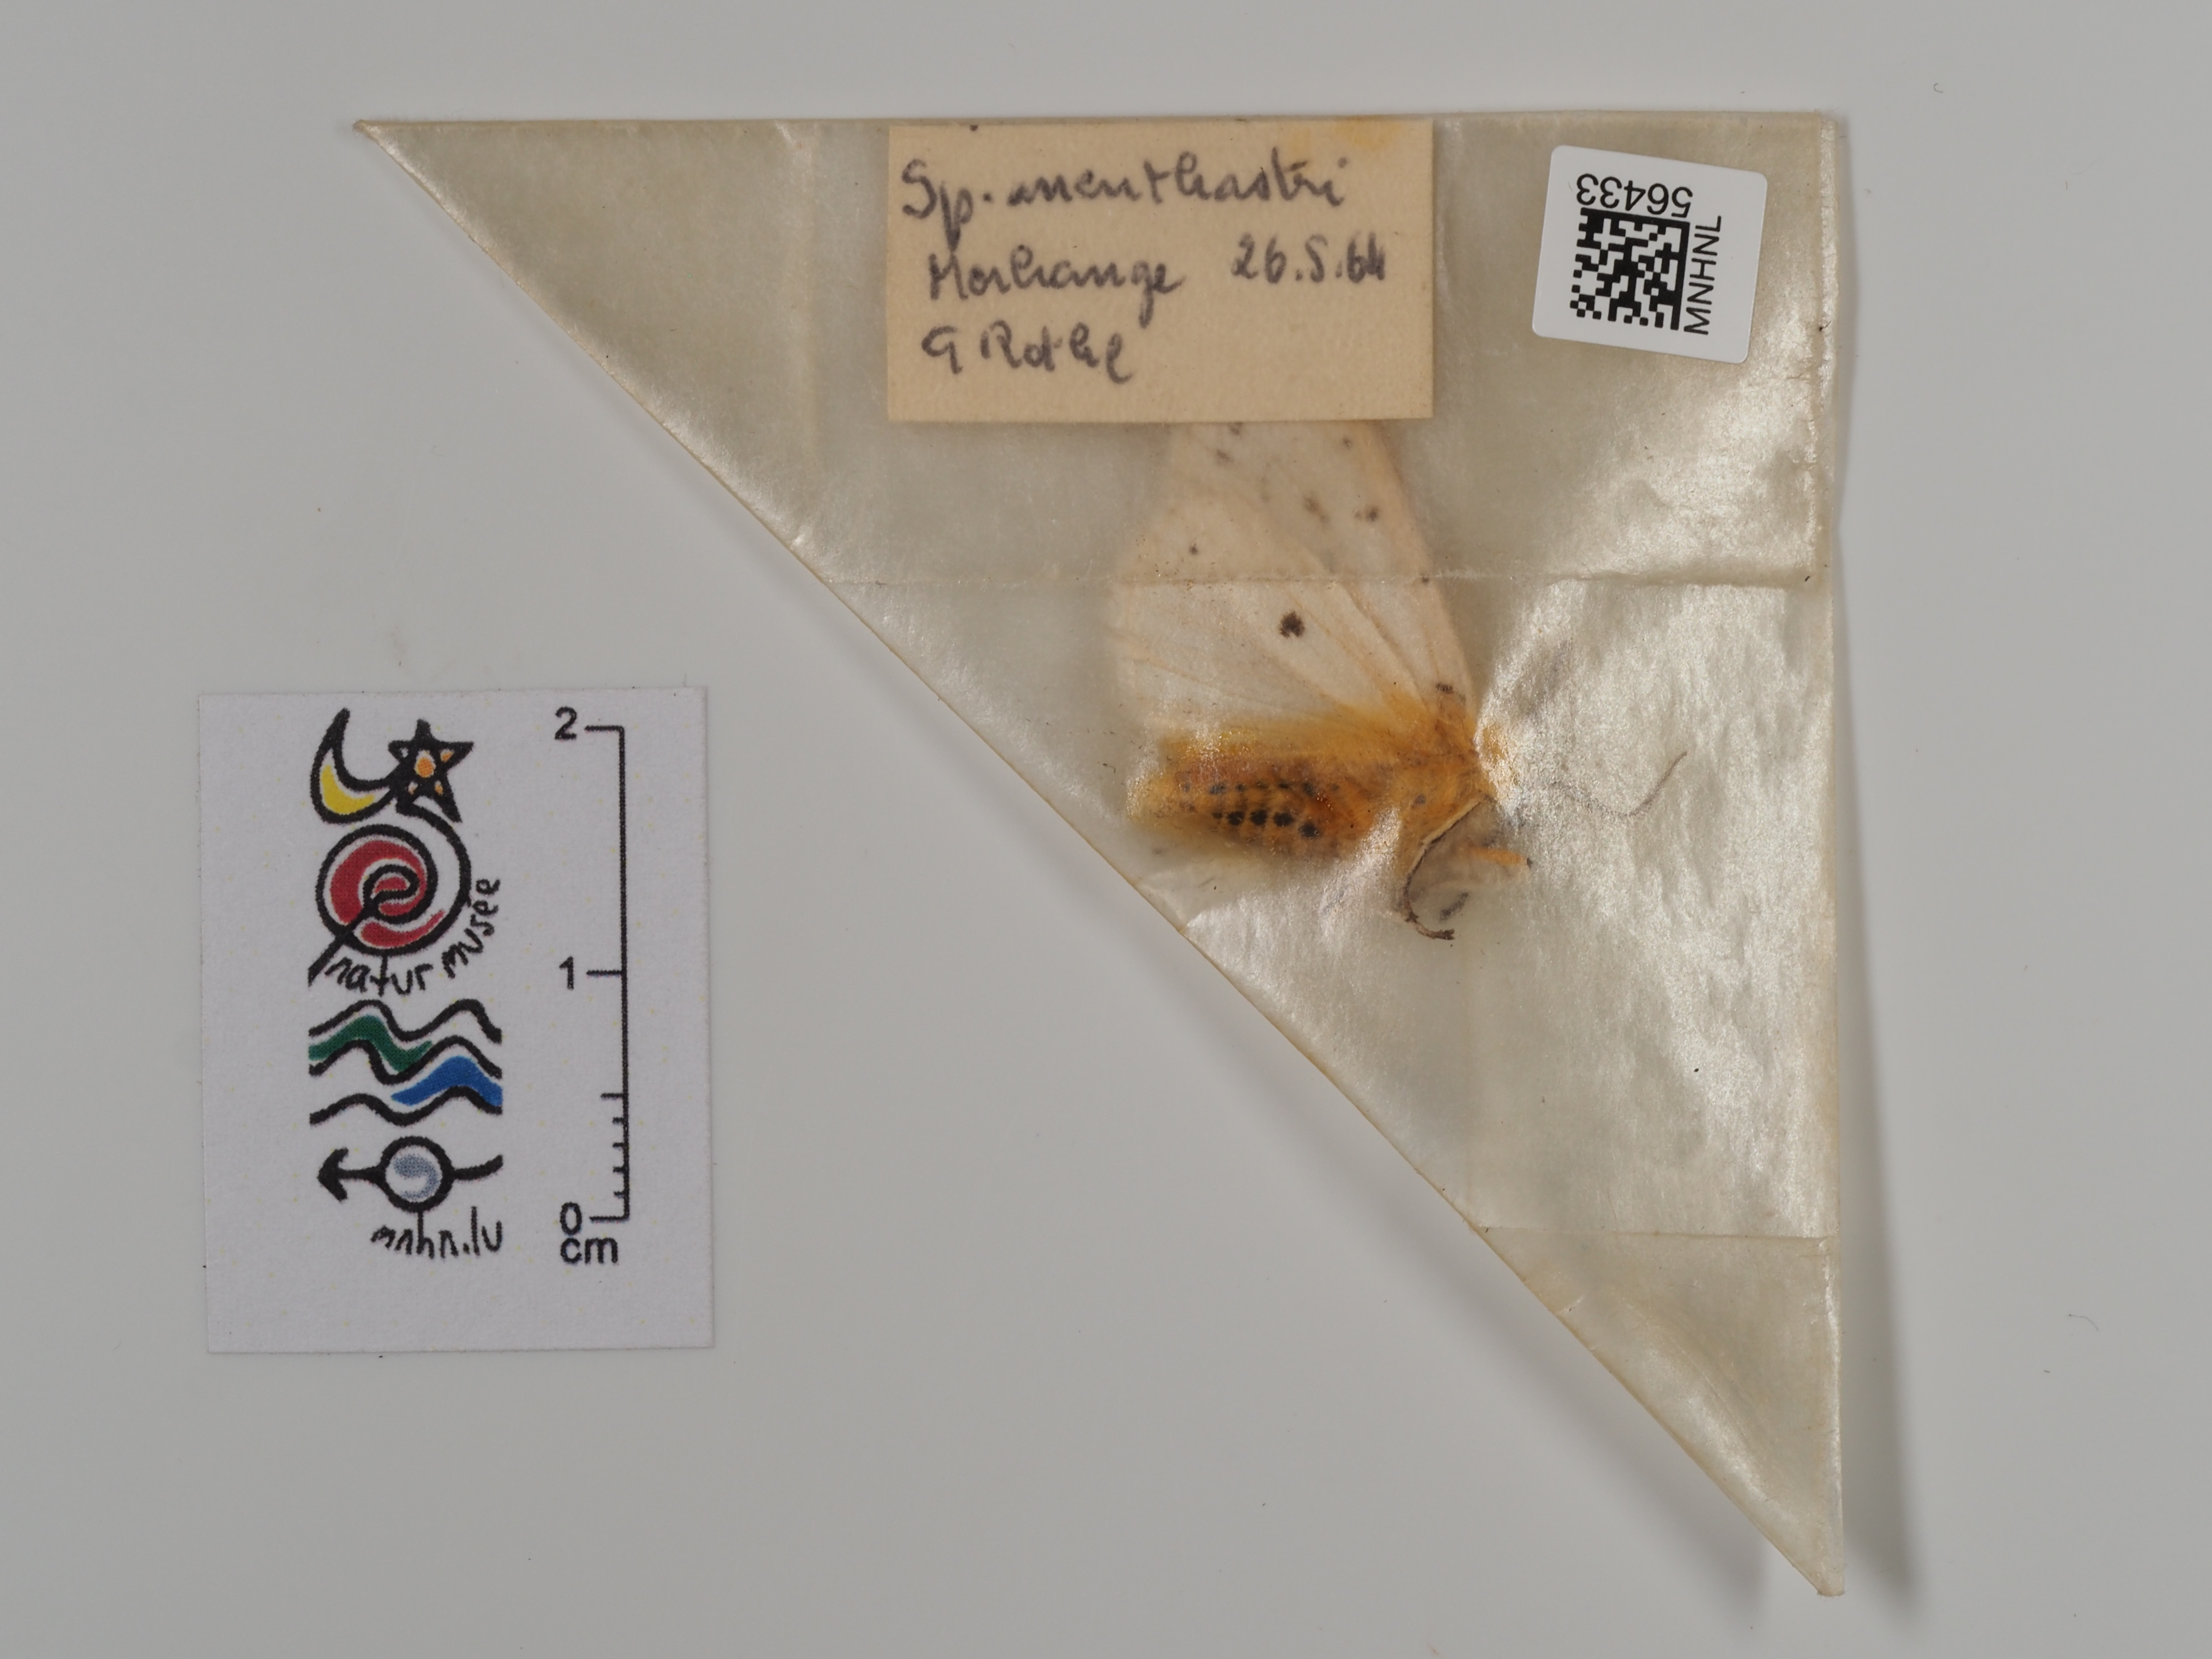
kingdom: Animalia
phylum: Arthropoda
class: Insecta
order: Lepidoptera
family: Erebidae
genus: Spilosoma
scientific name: Spilosoma lubricipeda
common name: White ermine
